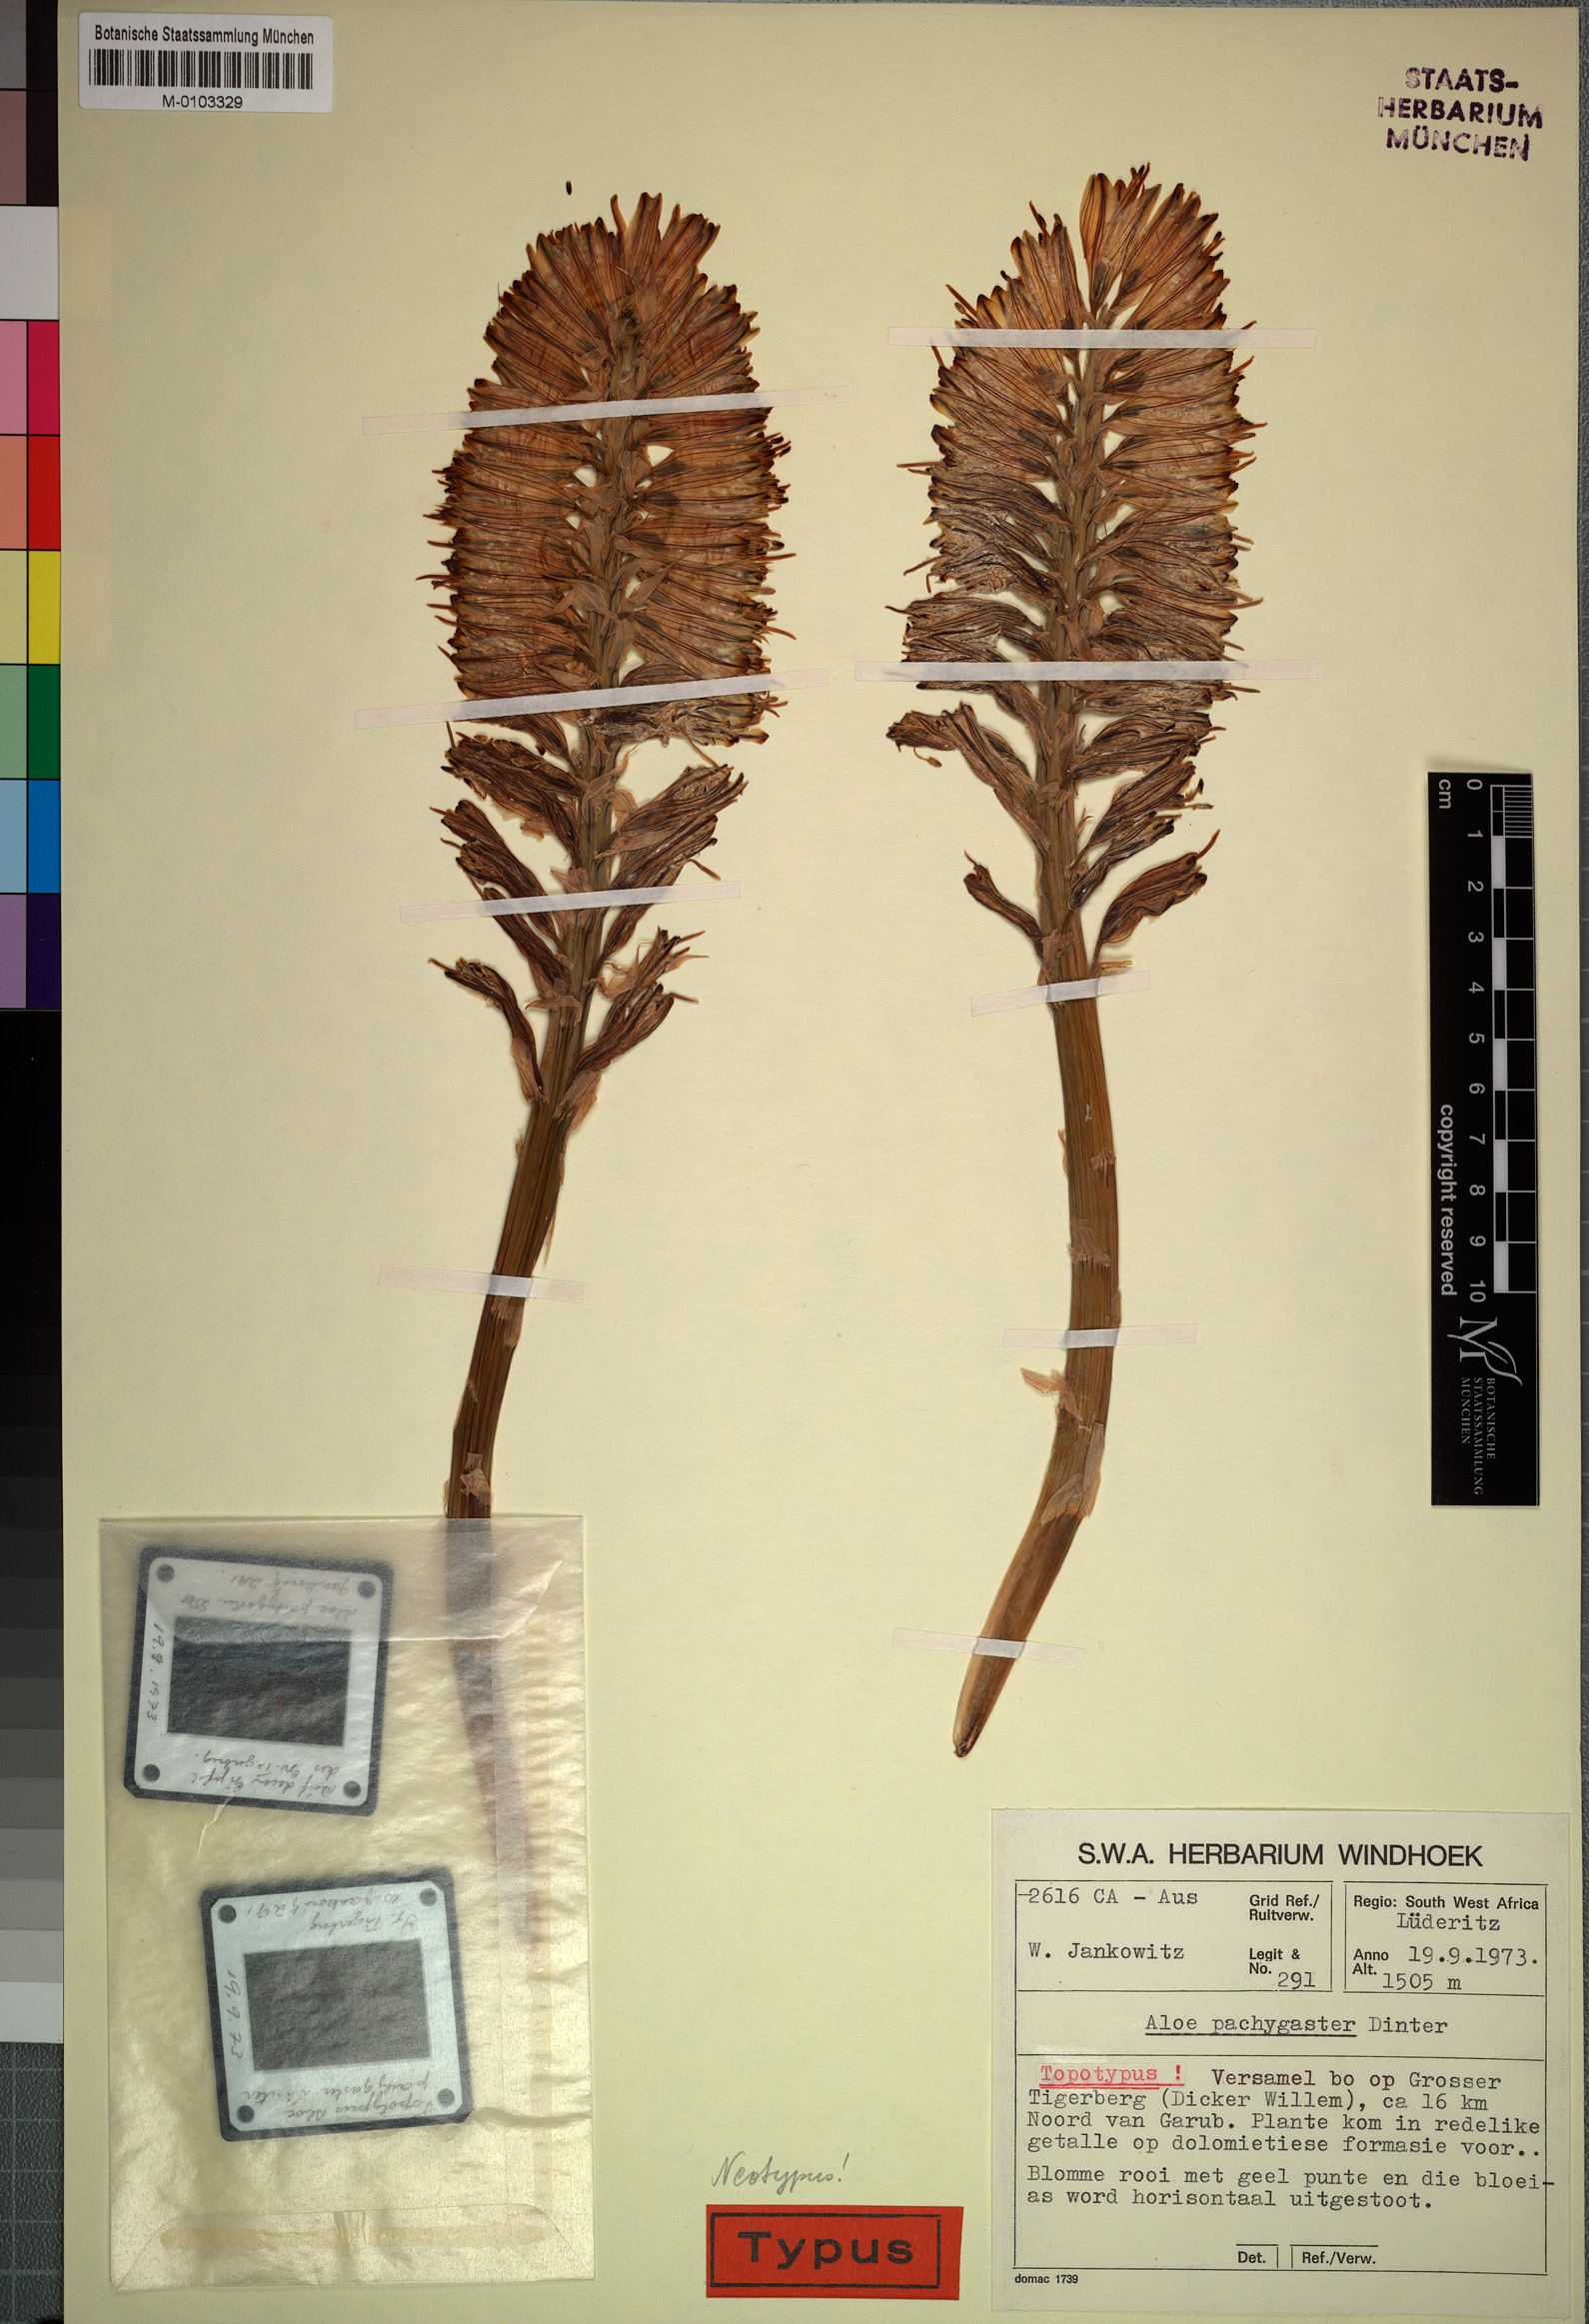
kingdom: Plantae
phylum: Tracheophyta
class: Liliopsida
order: Asparagales
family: Asphodelaceae
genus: Aloe
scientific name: Aloe pachygaster
